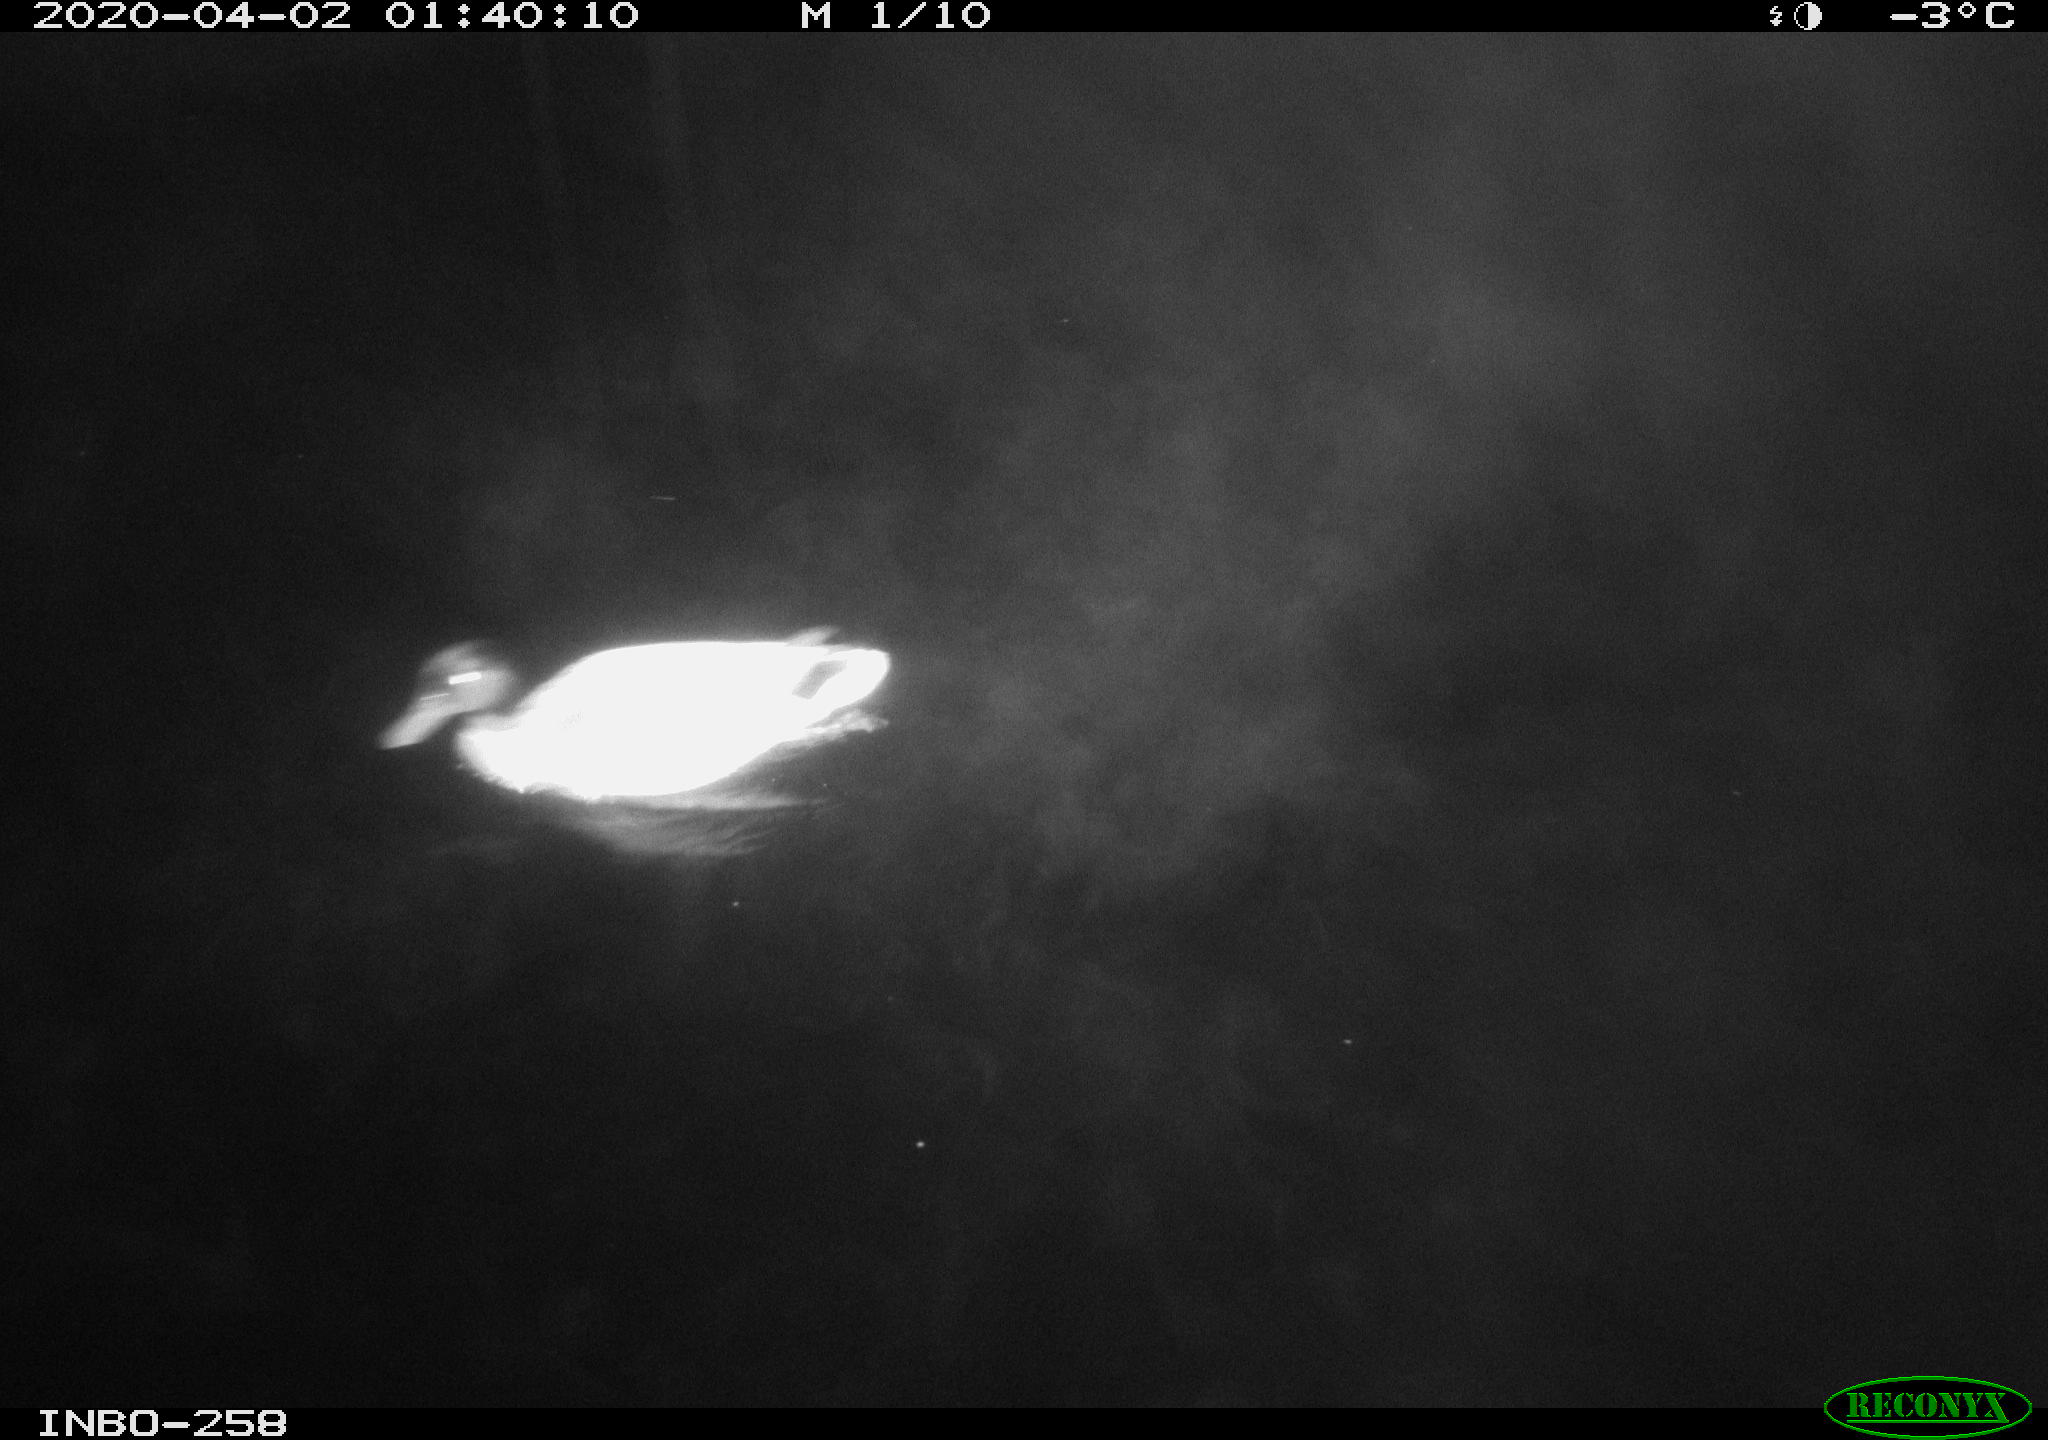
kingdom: Animalia
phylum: Chordata
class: Aves
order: Anseriformes
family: Anatidae
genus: Anas
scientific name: Anas platyrhynchos
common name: Mallard
